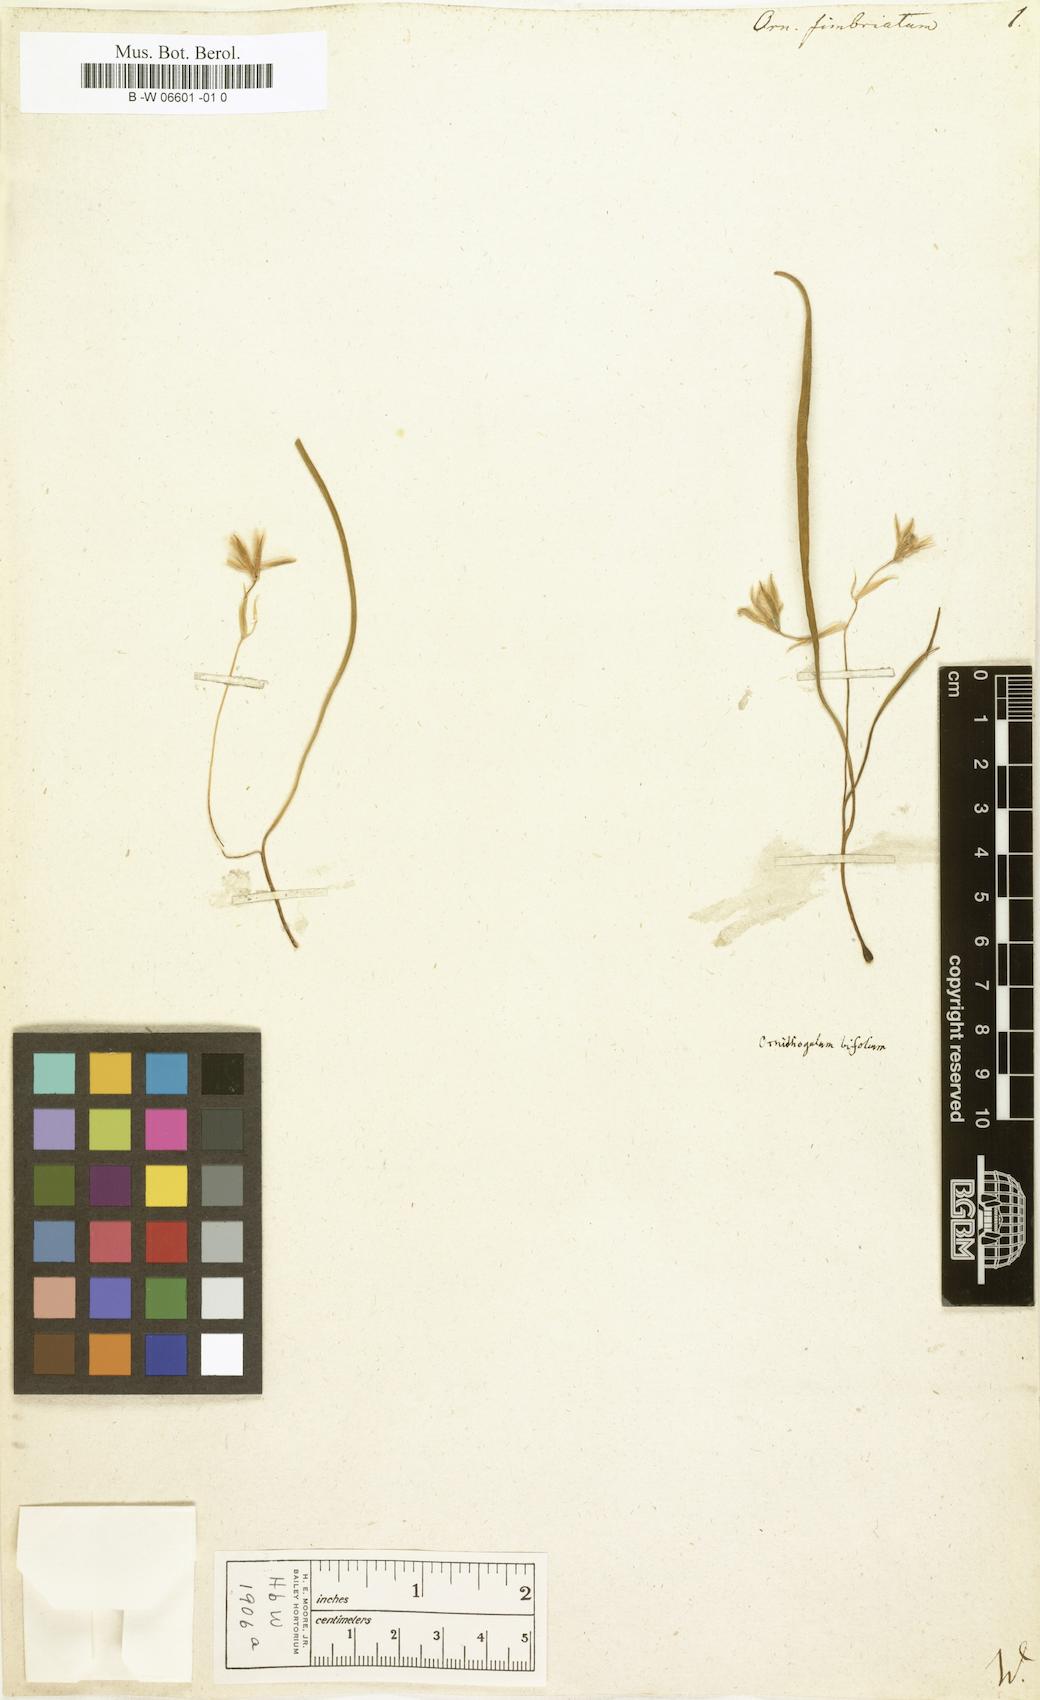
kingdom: Plantae
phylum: Tracheophyta
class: Liliopsida
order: Asparagales
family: Asparagaceae
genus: Ornithogalum
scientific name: Ornithogalum fimbriatum
